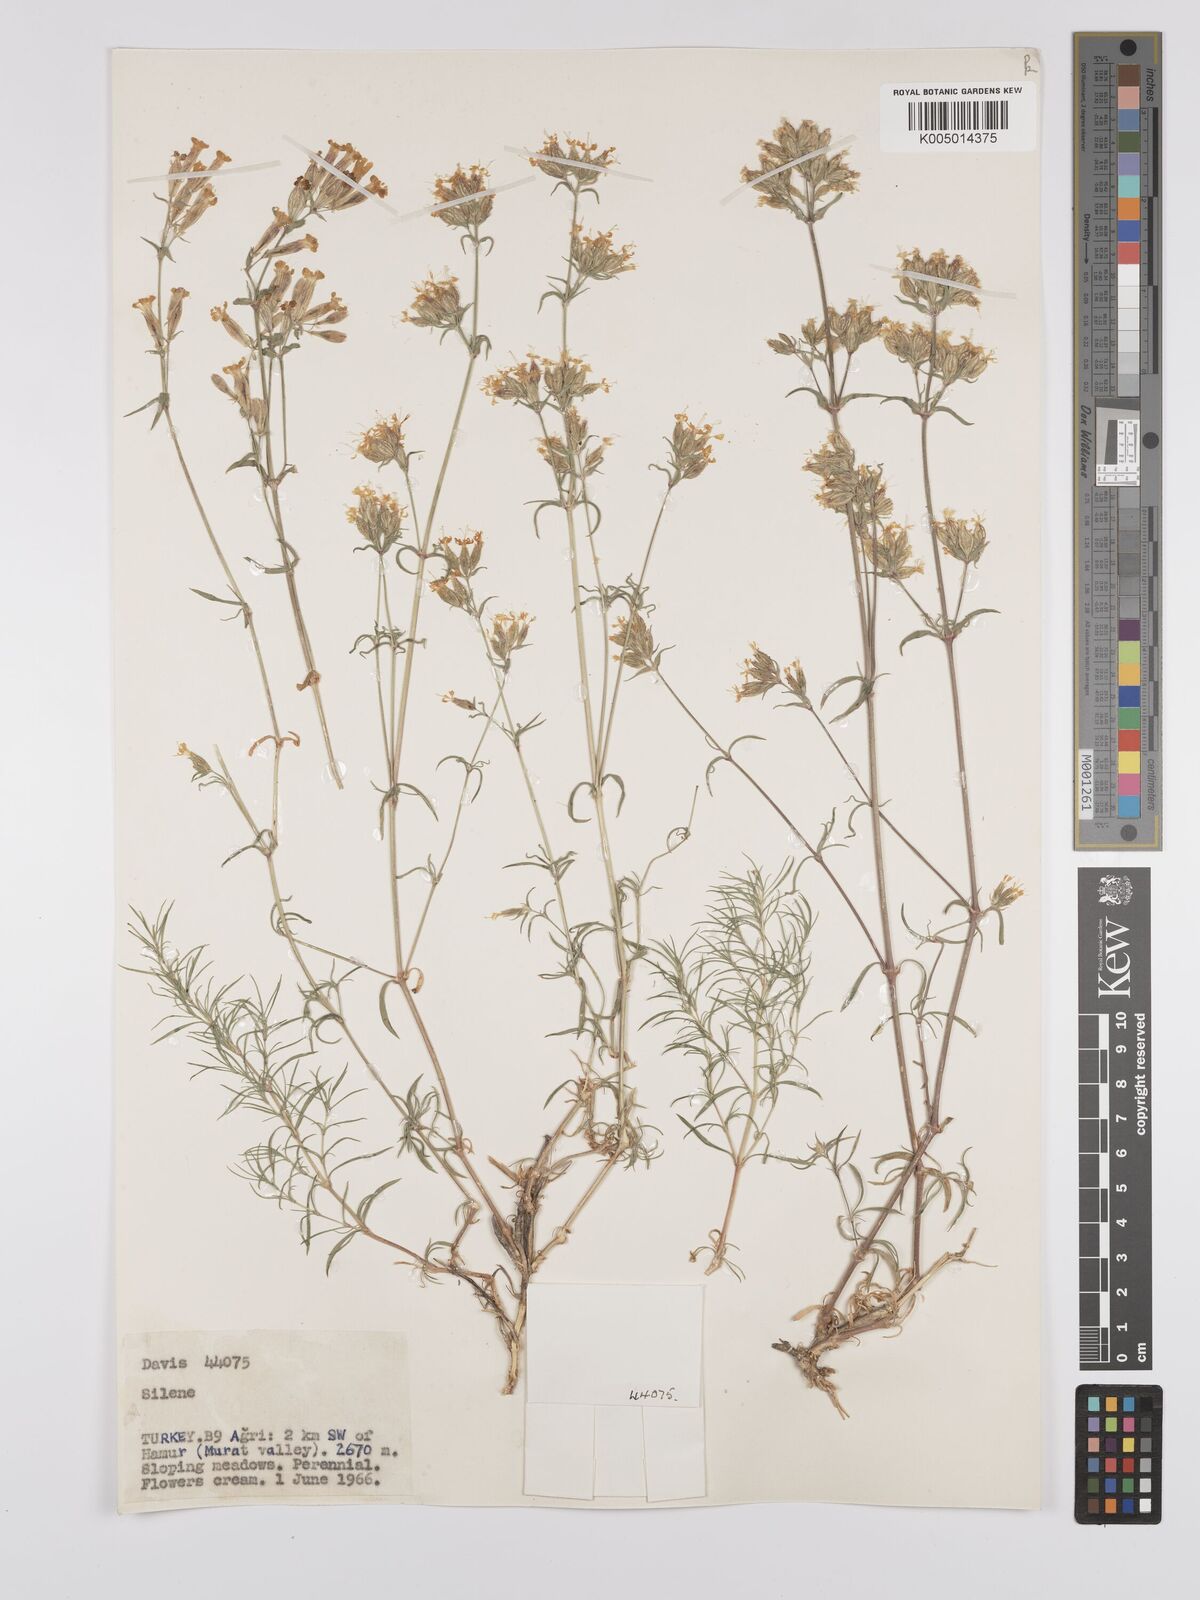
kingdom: Plantae
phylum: Tracheophyta
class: Magnoliopsida
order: Caryophyllales
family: Caryophyllaceae
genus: Silene
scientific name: Silene
